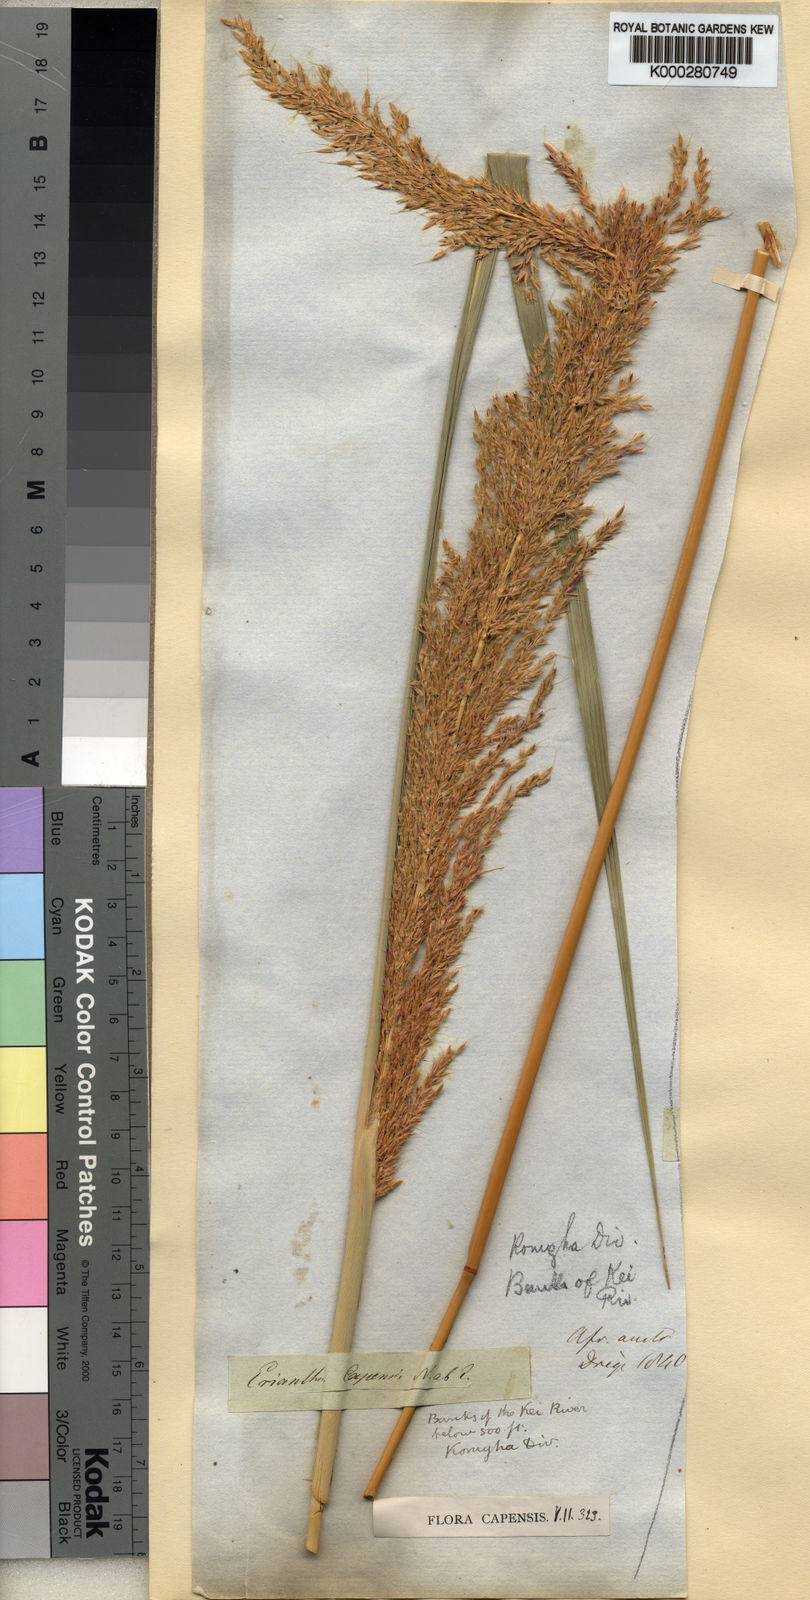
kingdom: Plantae
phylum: Tracheophyta
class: Liliopsida
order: Poales
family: Poaceae
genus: Miscanthus
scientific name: Miscanthus ecklonii
